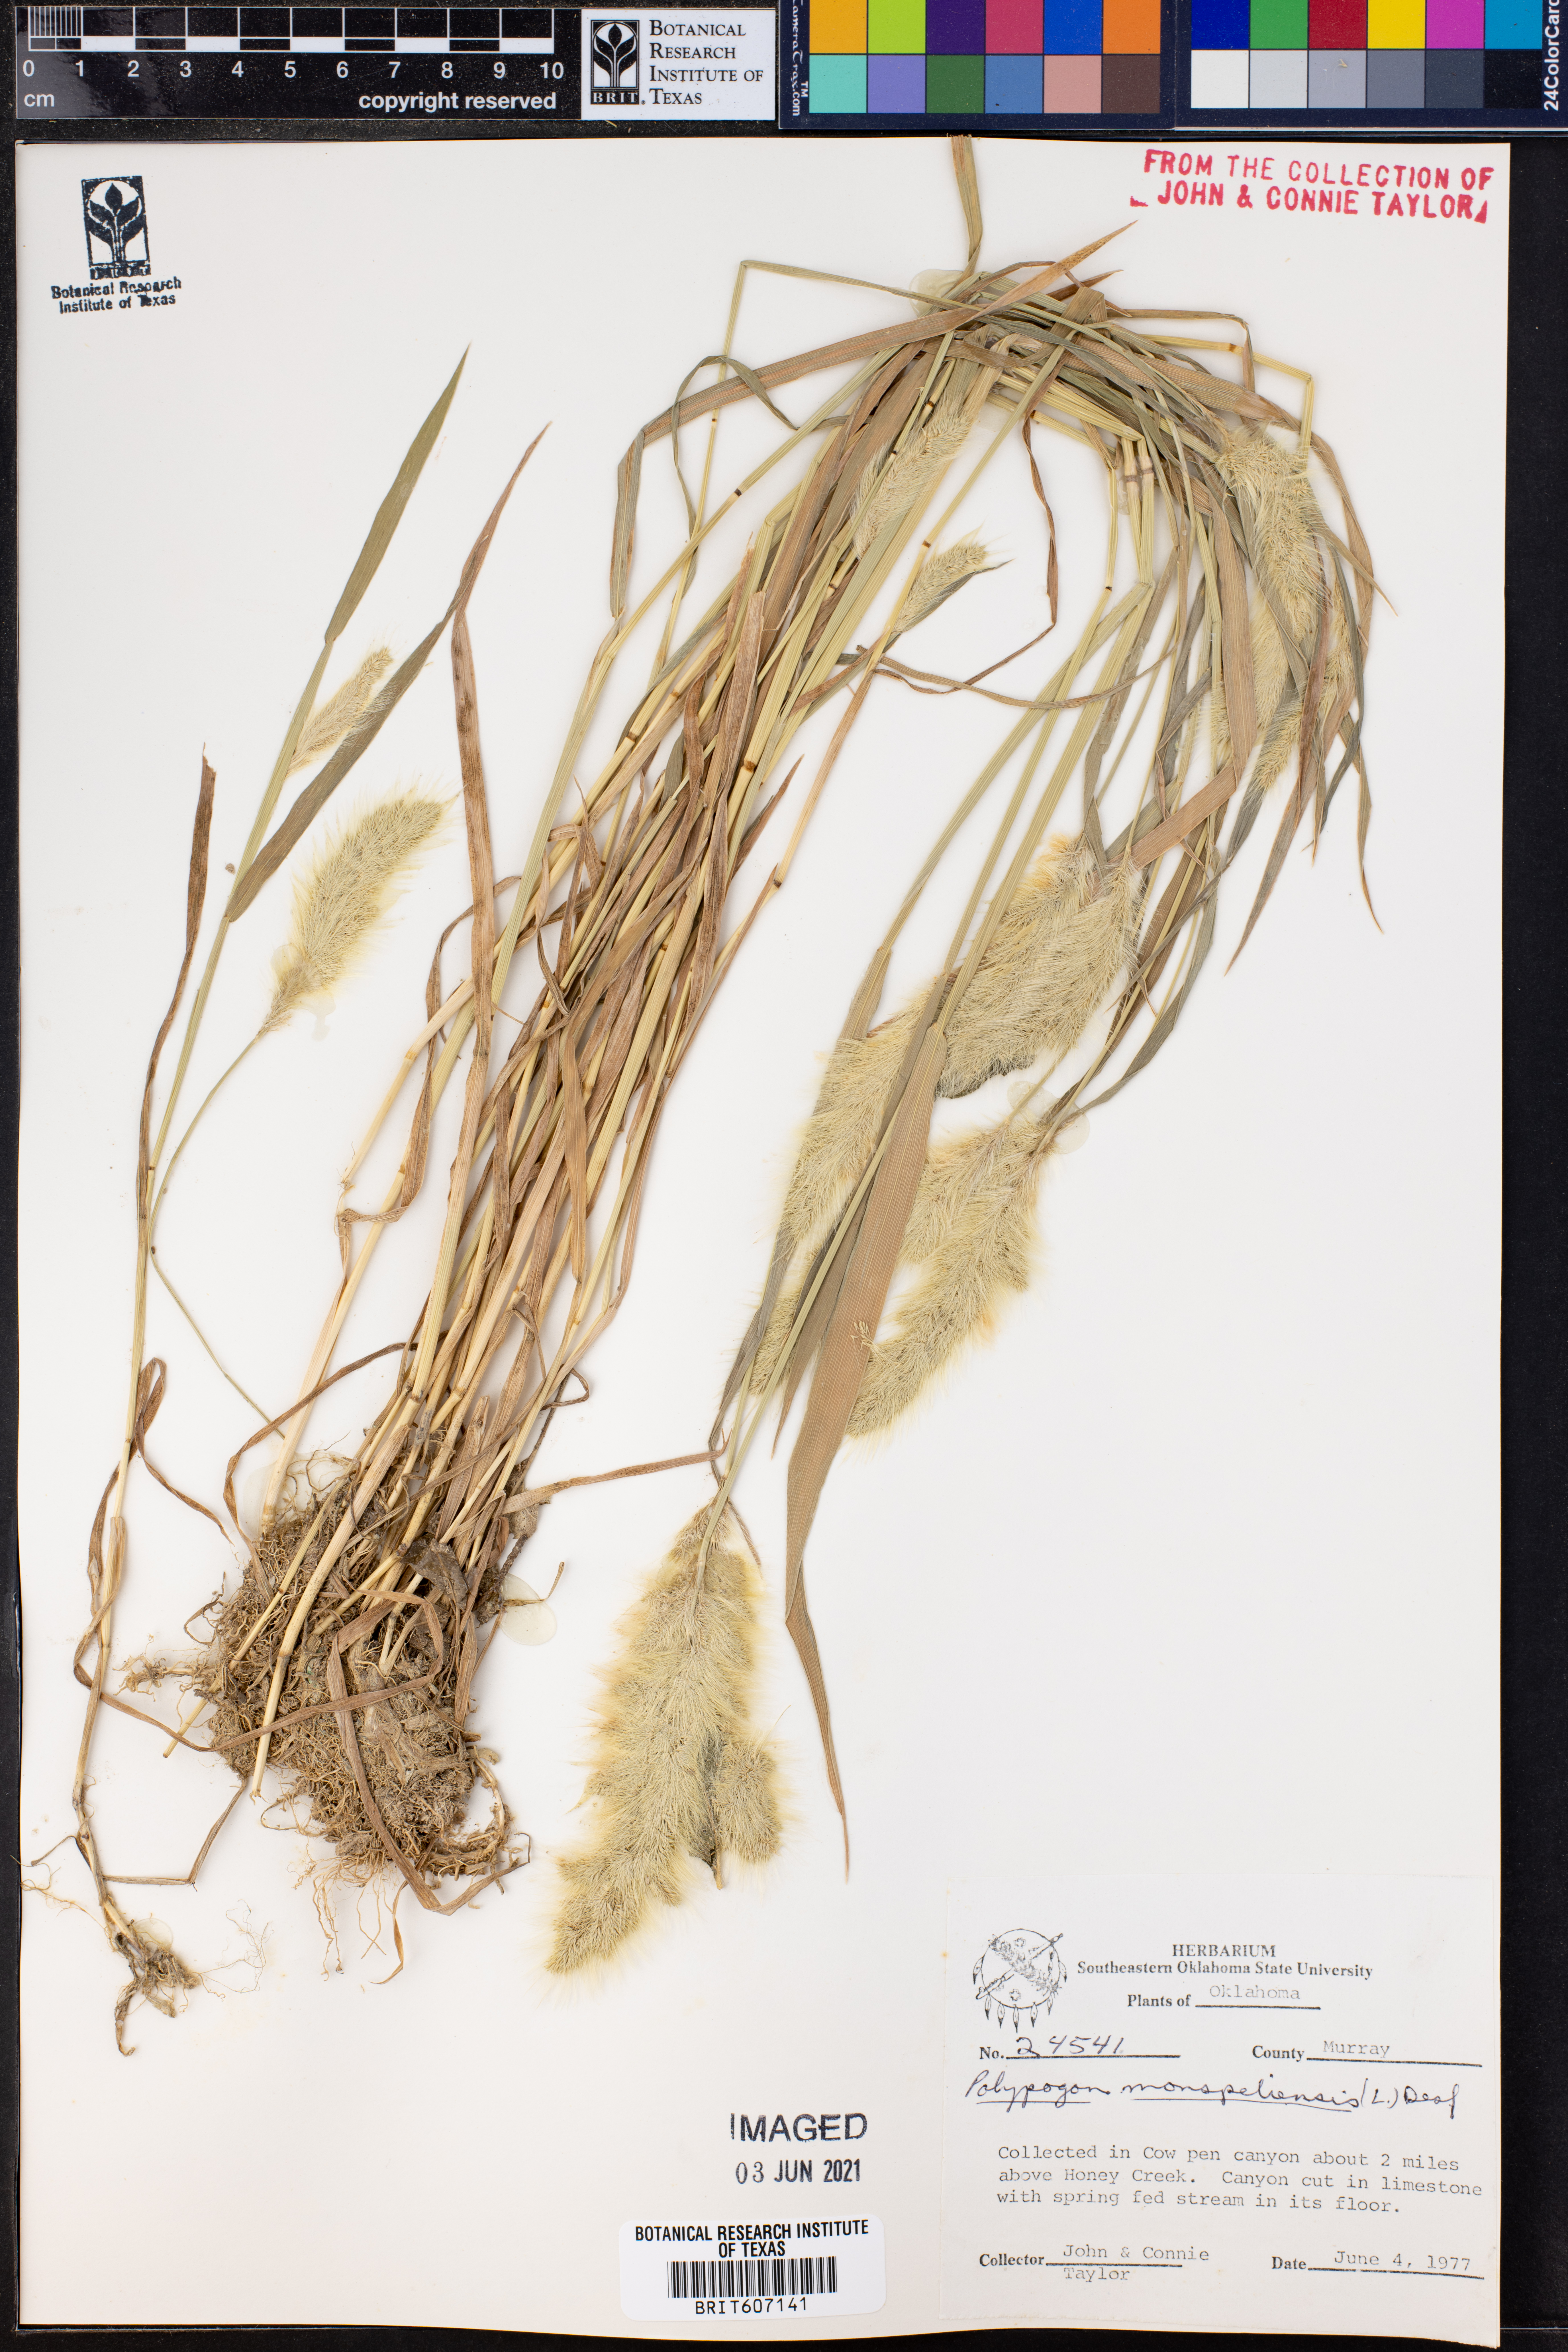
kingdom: Plantae
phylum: Tracheophyta
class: Magnoliopsida
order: Caryophyllales
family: Polygonaceae
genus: Polygonum
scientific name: Polygonum aviculare
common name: Prostrate knotweed
